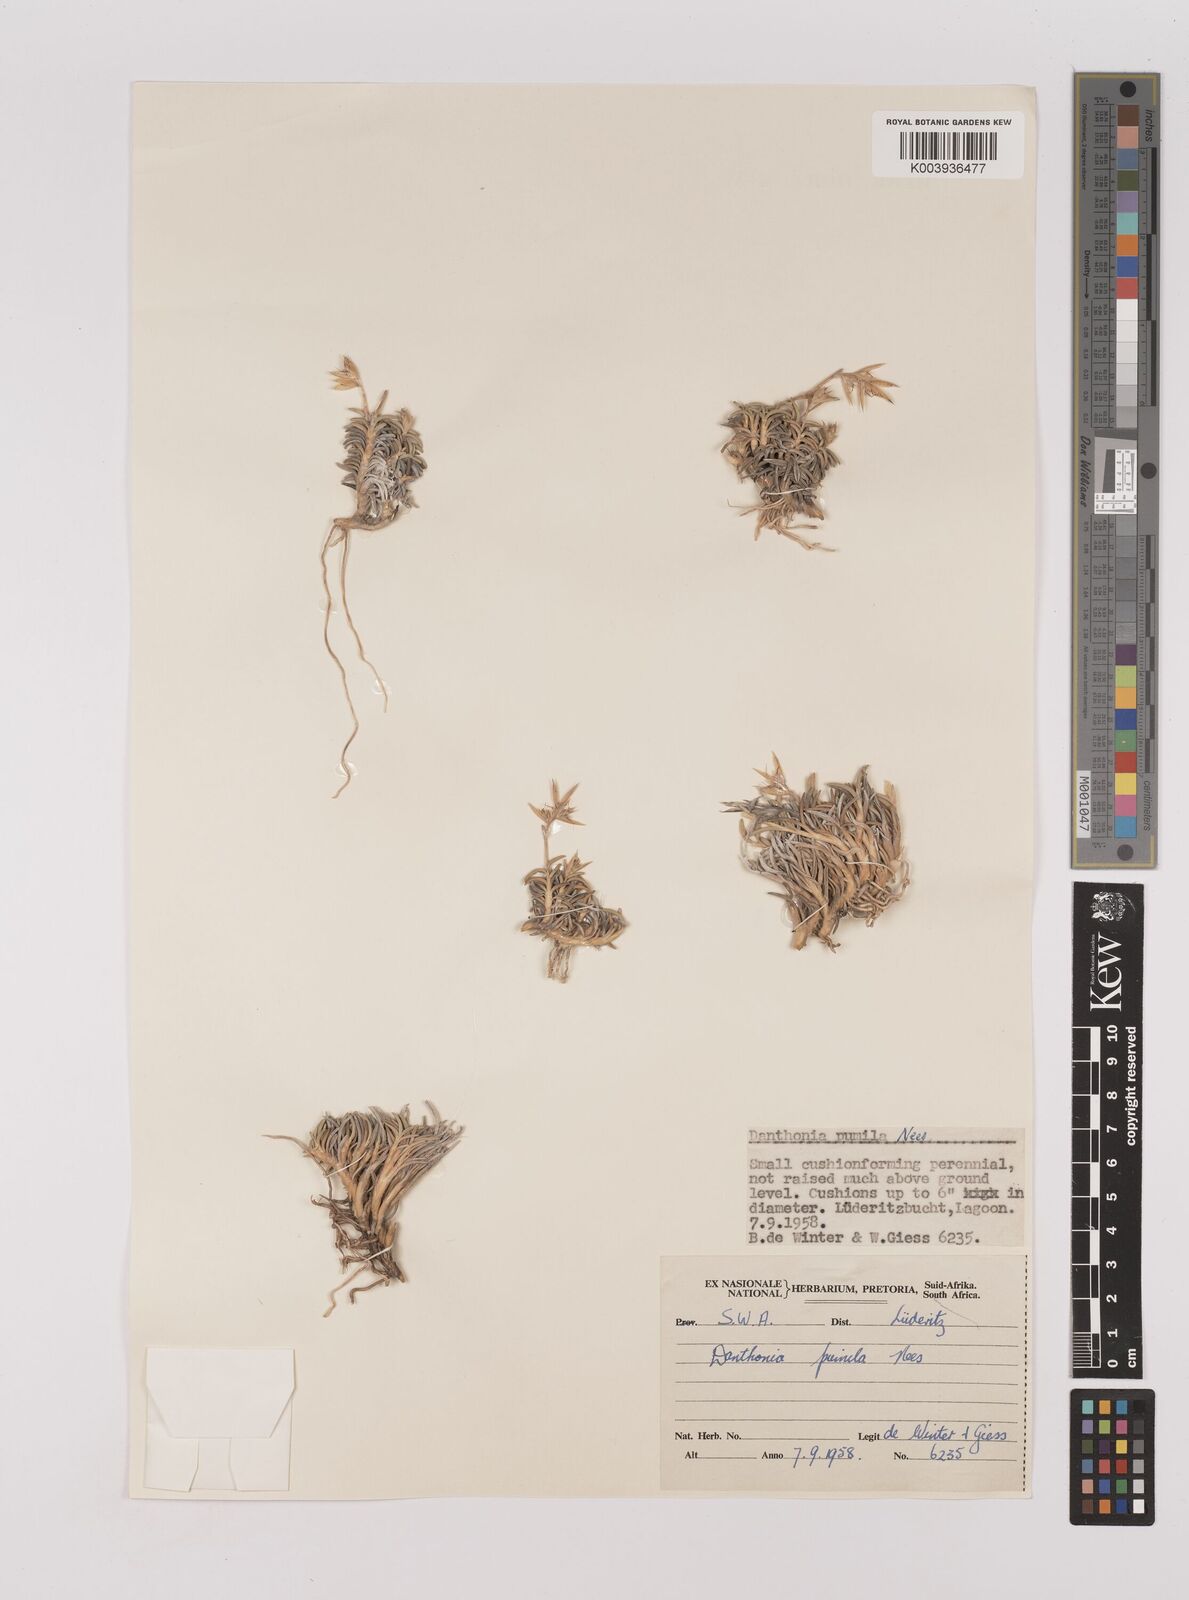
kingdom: Plantae
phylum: Tracheophyta
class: Liliopsida
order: Poales
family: Poaceae
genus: Dregeochloa
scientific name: Dregeochloa pumila
